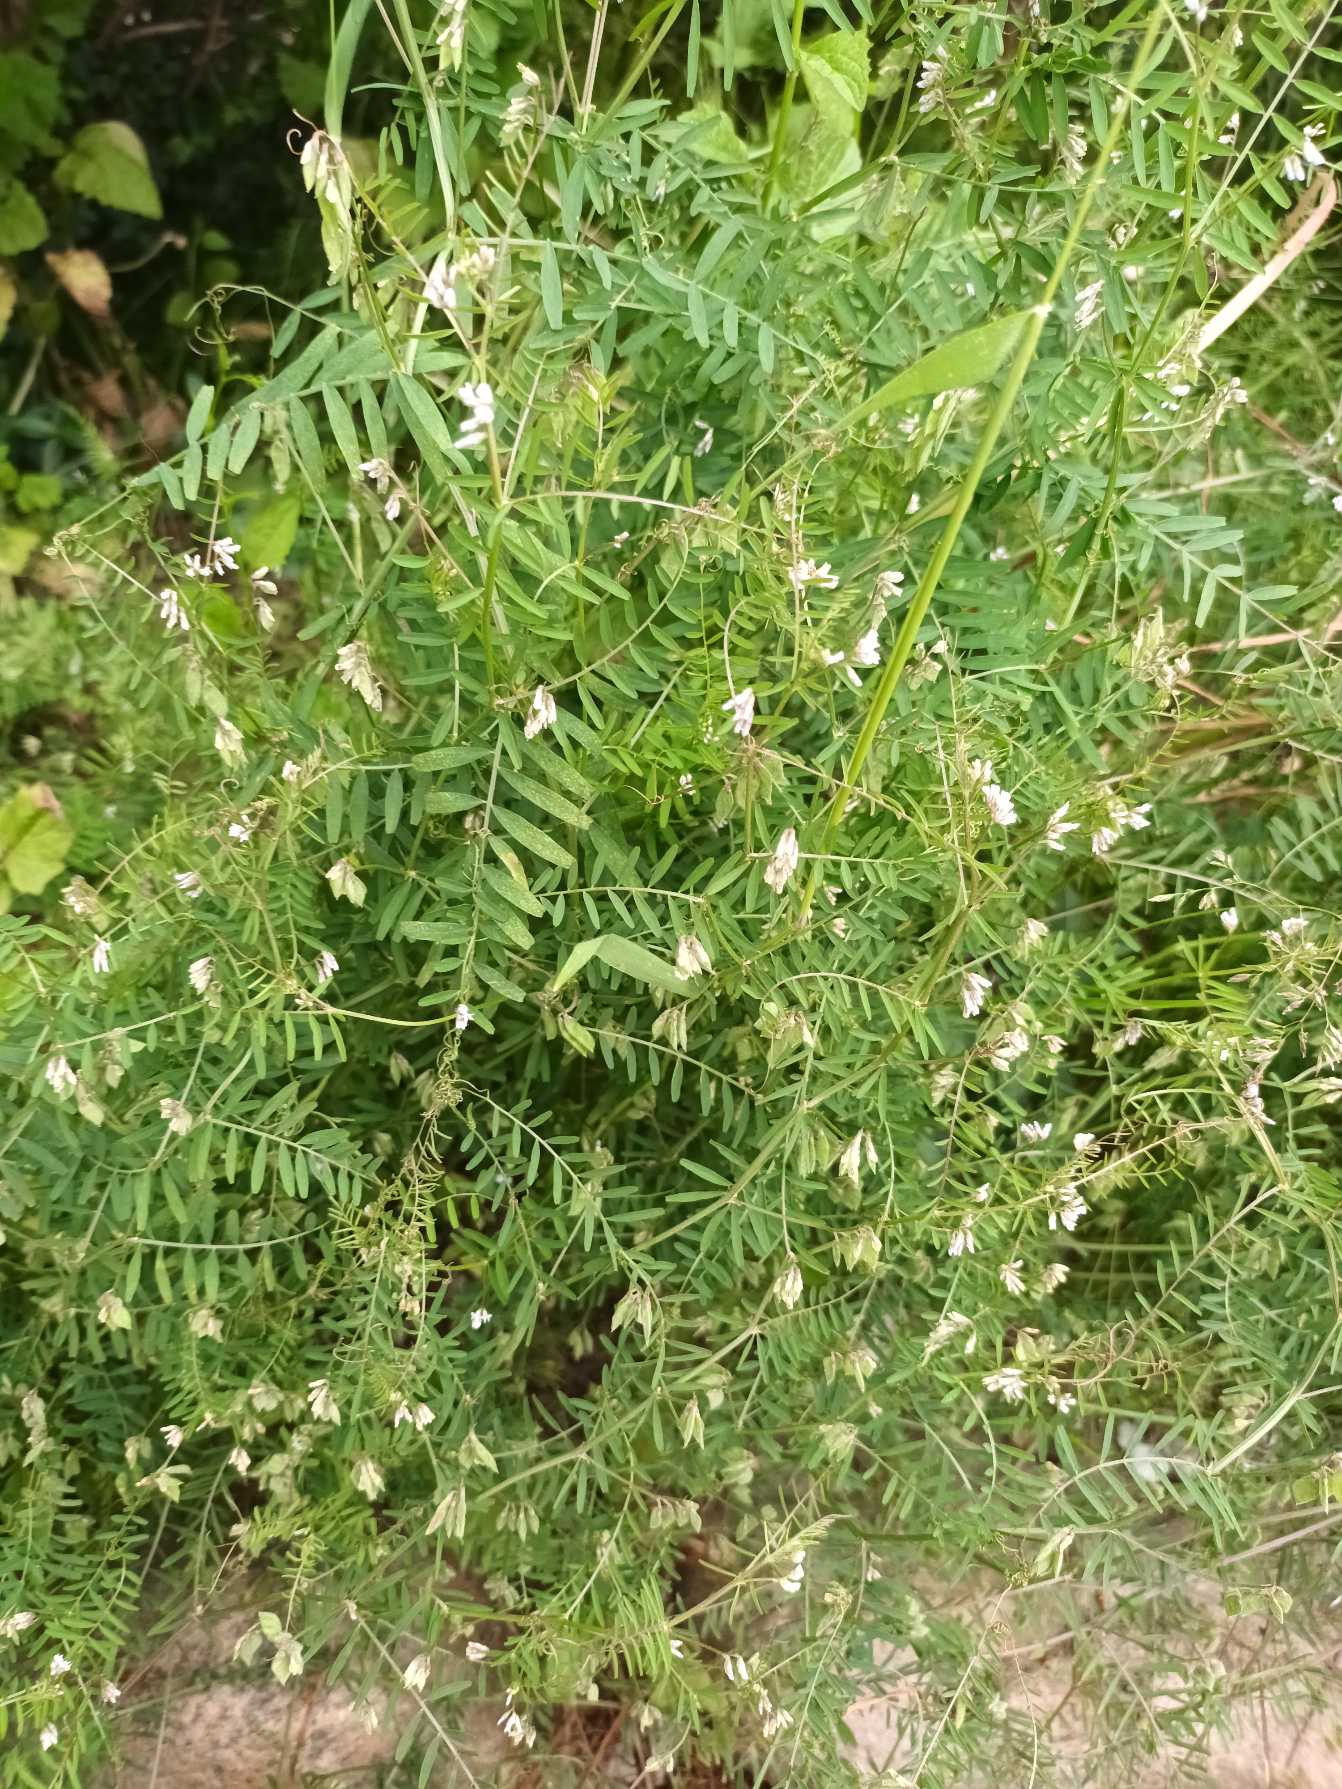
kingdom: Plantae
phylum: Tracheophyta
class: Magnoliopsida
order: Fabales
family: Fabaceae
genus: Vicia
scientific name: Vicia hirsuta
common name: Tofrøet vikke
